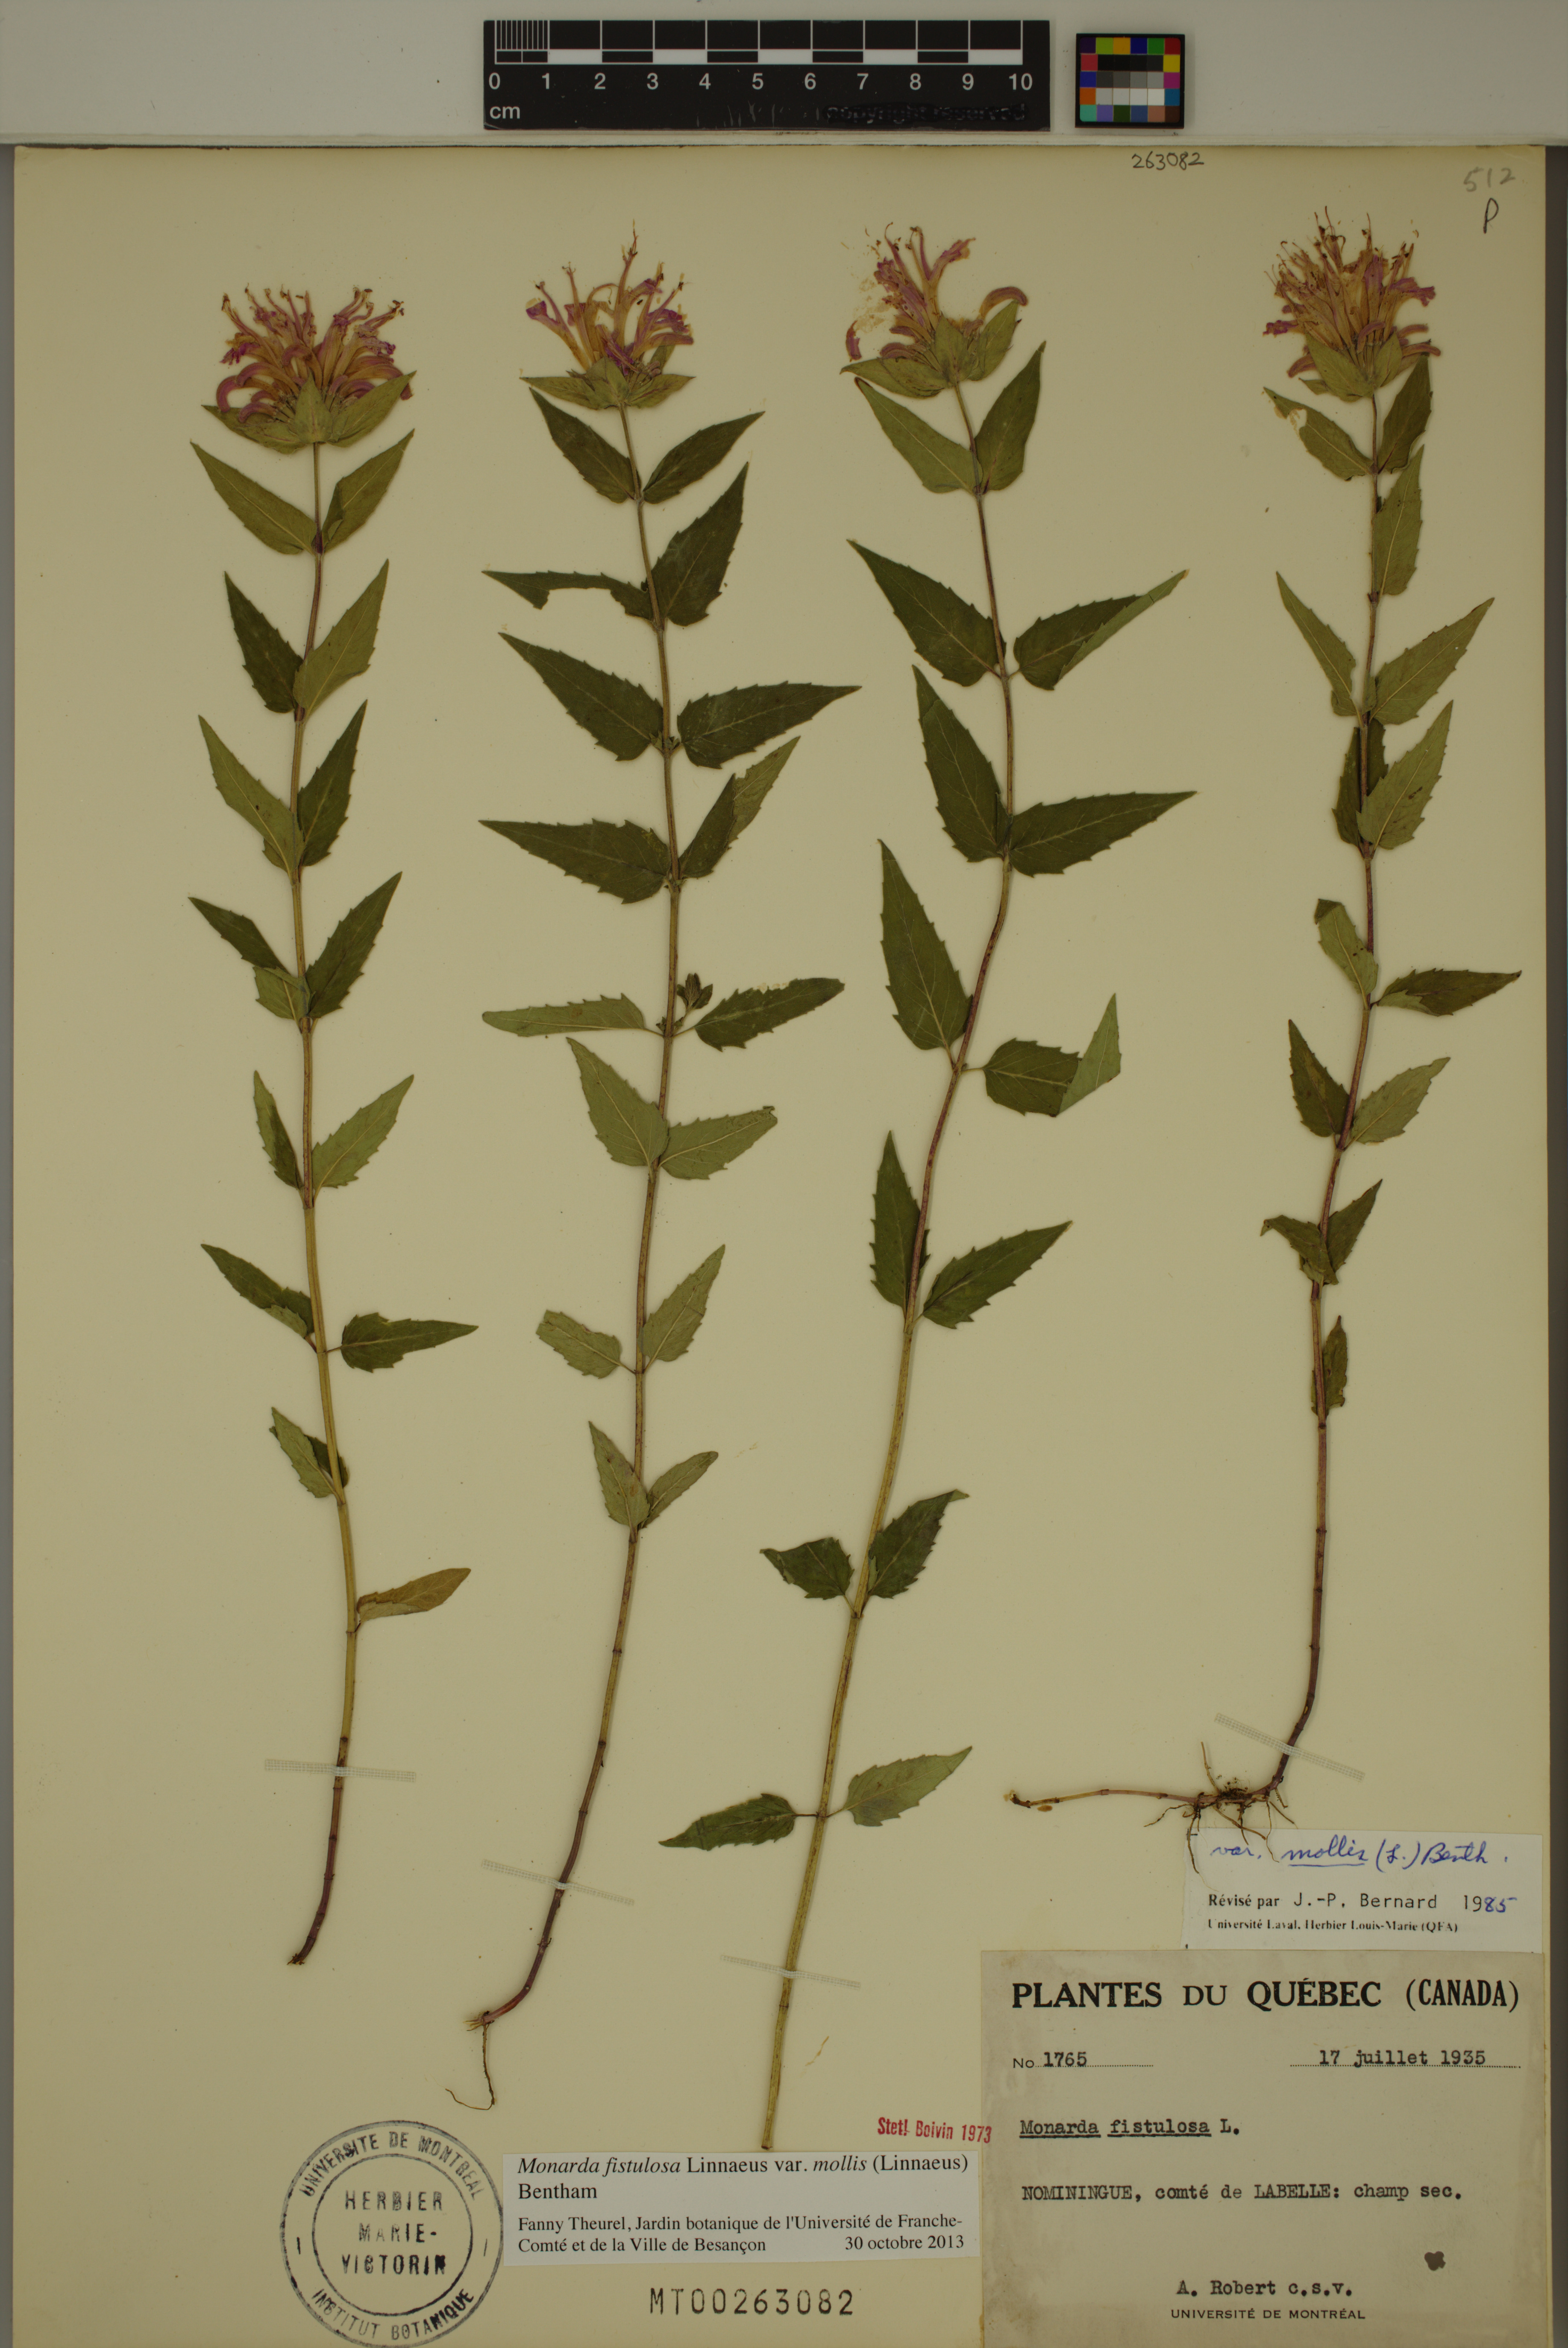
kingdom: Plantae
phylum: Tracheophyta
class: Magnoliopsida
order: Lamiales
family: Lamiaceae
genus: Monarda
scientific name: Monarda fistulosa
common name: Purple beebalm
